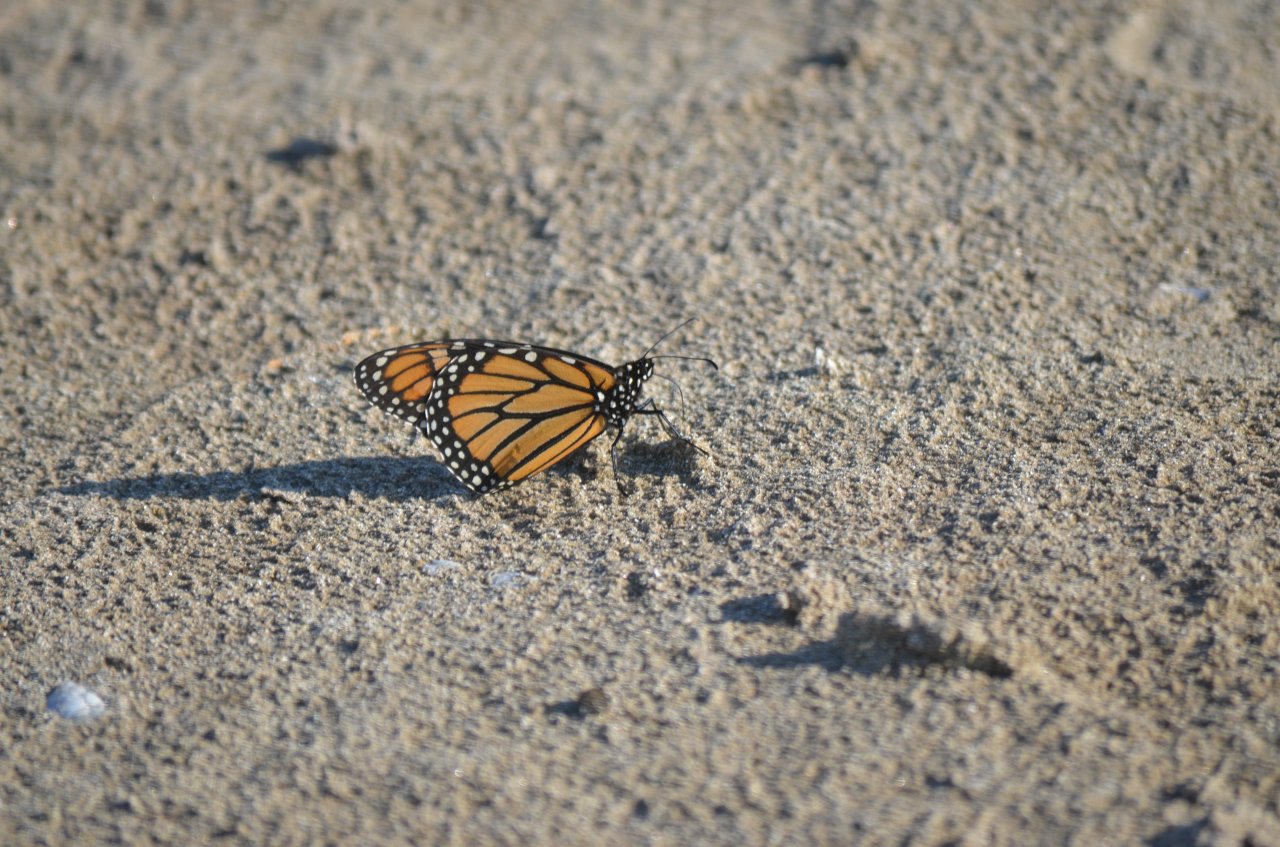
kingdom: Animalia
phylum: Arthropoda
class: Insecta
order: Lepidoptera
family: Nymphalidae
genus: Danaus
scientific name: Danaus plexippus
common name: Monarch
